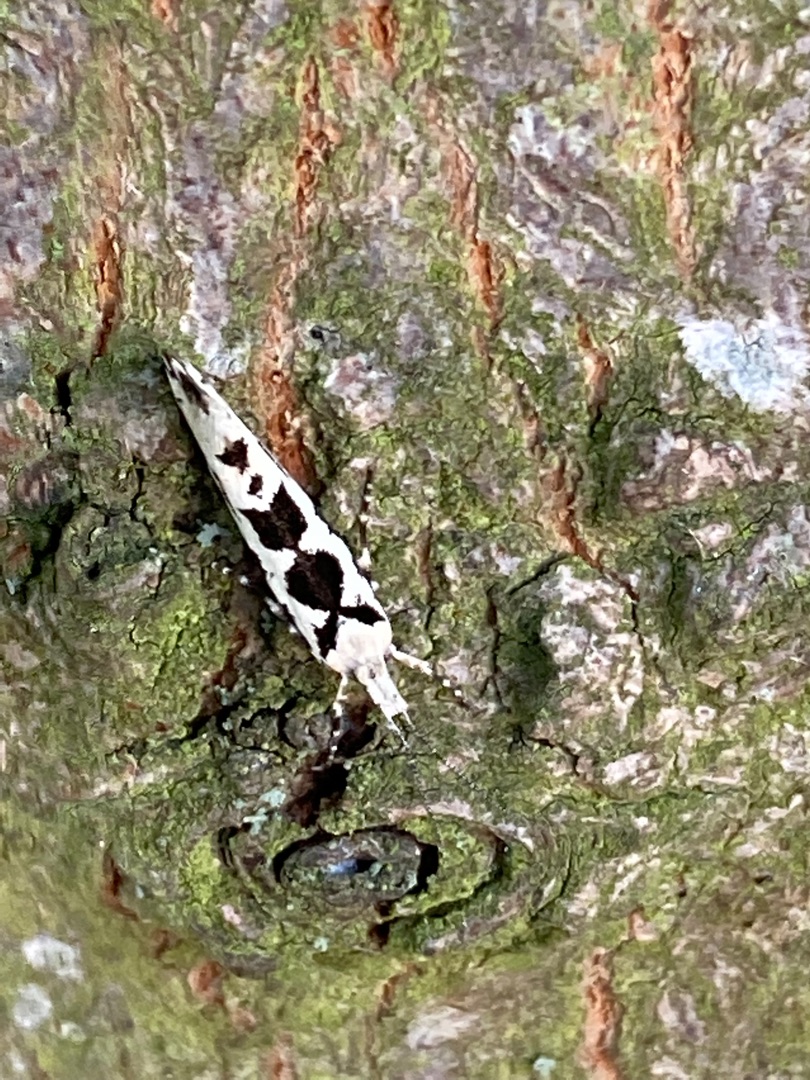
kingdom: Animalia
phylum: Arthropoda
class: Insecta
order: Lepidoptera
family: Plutellidae
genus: Ypsolophus
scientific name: Ypsolophus sequella
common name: Ahornmøl
